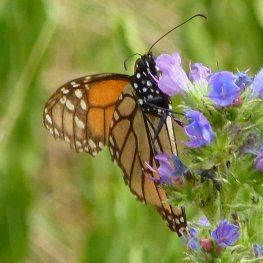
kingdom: Animalia
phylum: Arthropoda
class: Insecta
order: Lepidoptera
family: Nymphalidae
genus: Danaus
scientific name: Danaus plexippus
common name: Monarch
